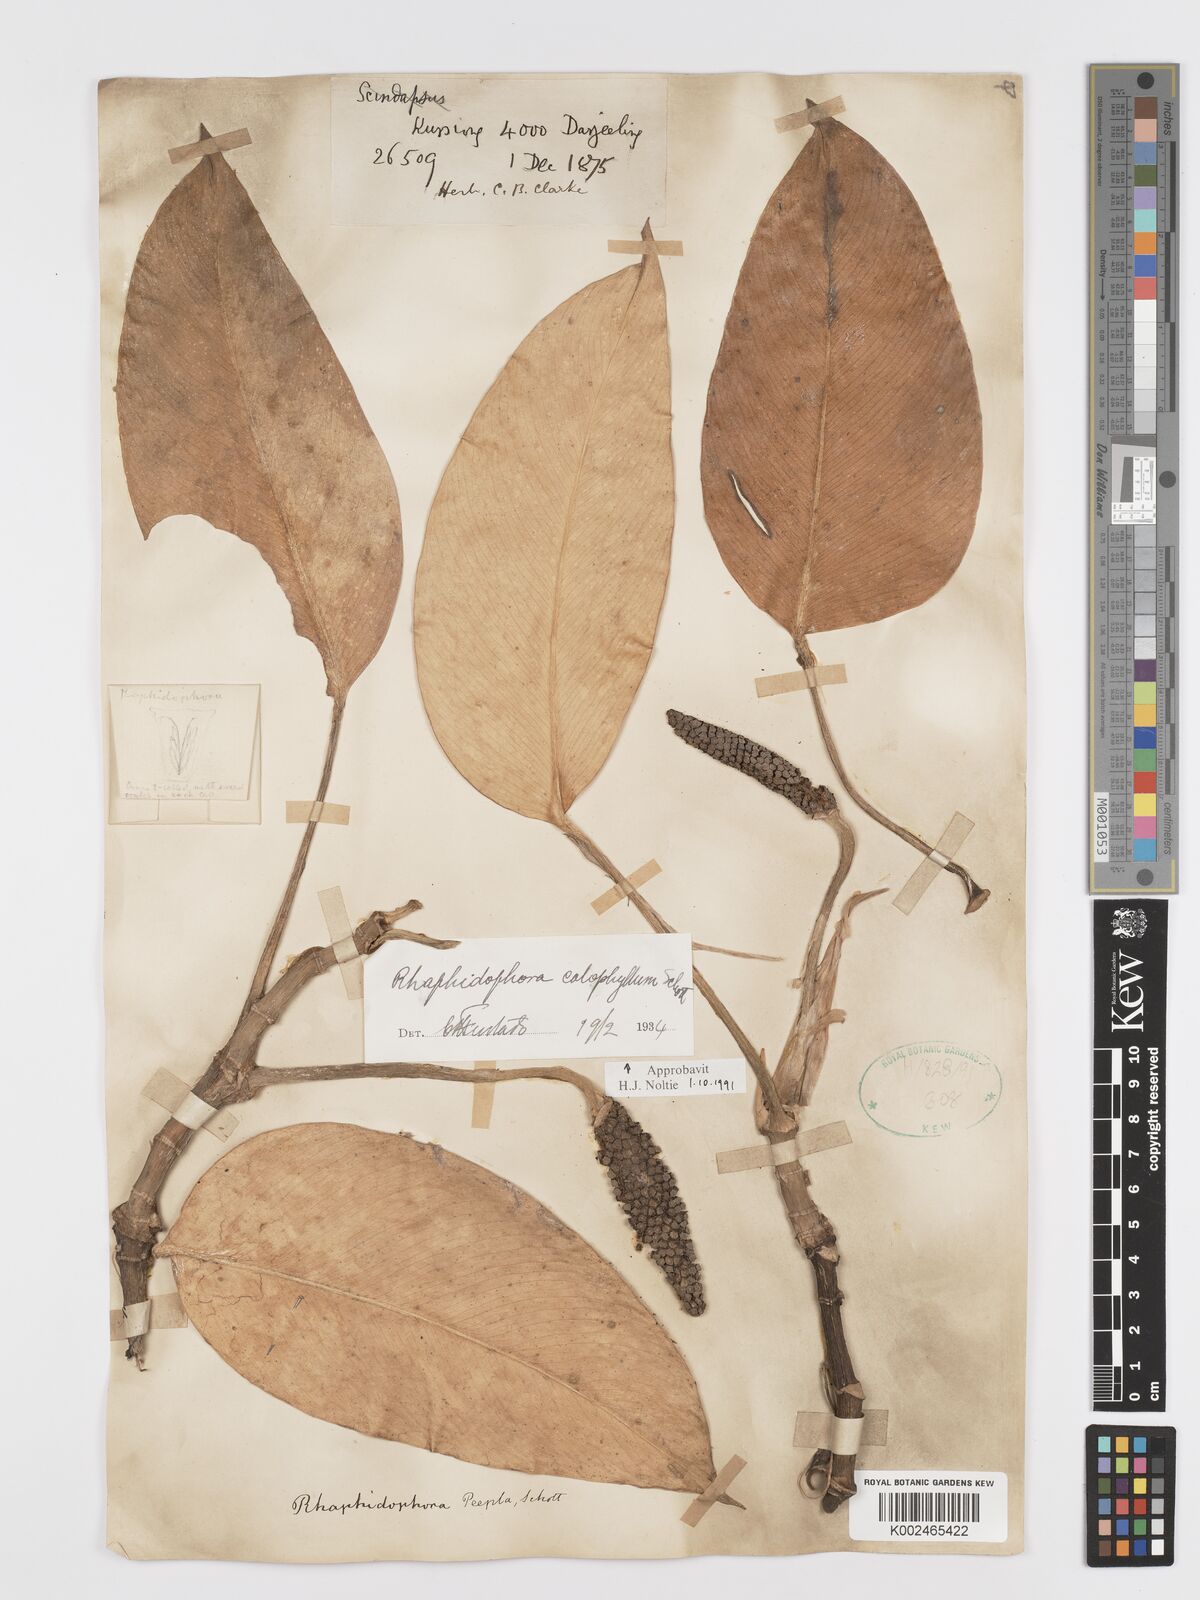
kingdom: Plantae
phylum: Tracheophyta
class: Liliopsida
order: Alismatales
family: Araceae
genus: Rhaphidophora
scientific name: Rhaphidophora calophylla
